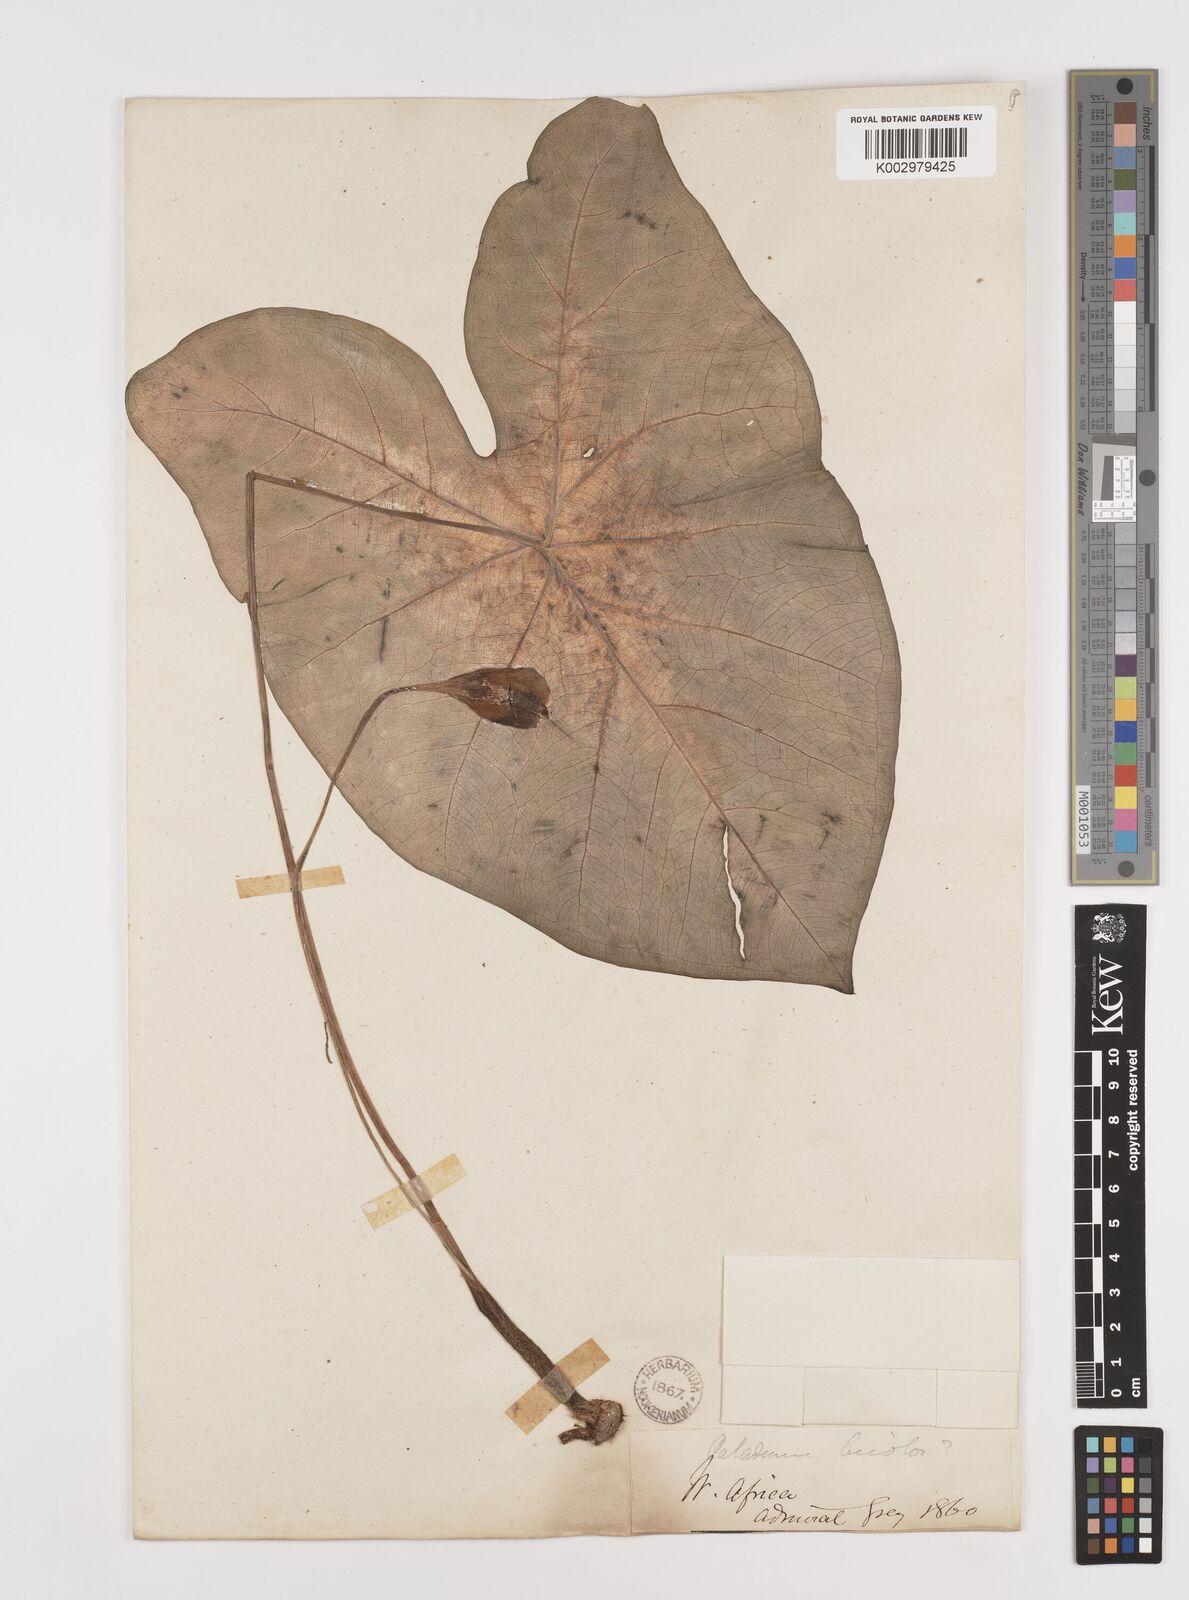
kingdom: Plantae
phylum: Tracheophyta
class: Liliopsida
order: Alismatales
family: Araceae
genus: Caladium
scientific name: Caladium bicolor
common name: Artist's pallet
